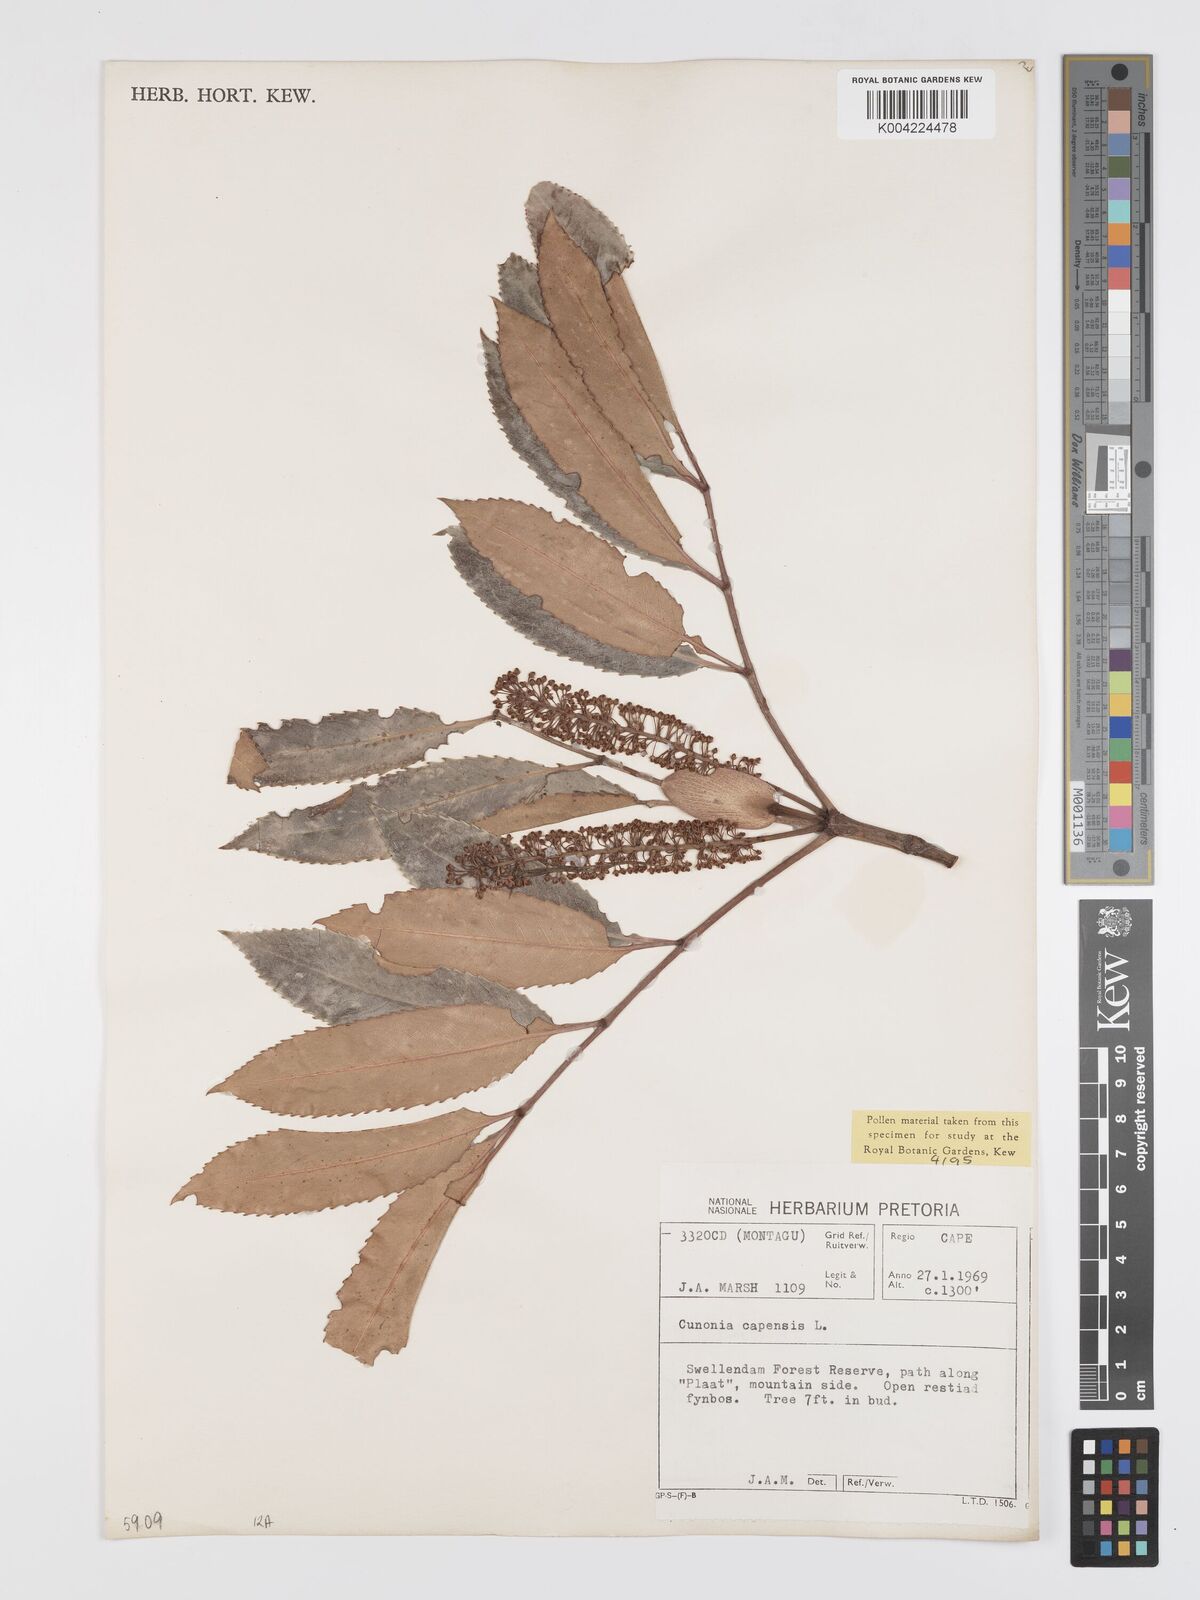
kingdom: Plantae
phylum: Tracheophyta
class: Magnoliopsida
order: Oxalidales
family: Cunoniaceae
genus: Cunonia
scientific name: Cunonia capensis
